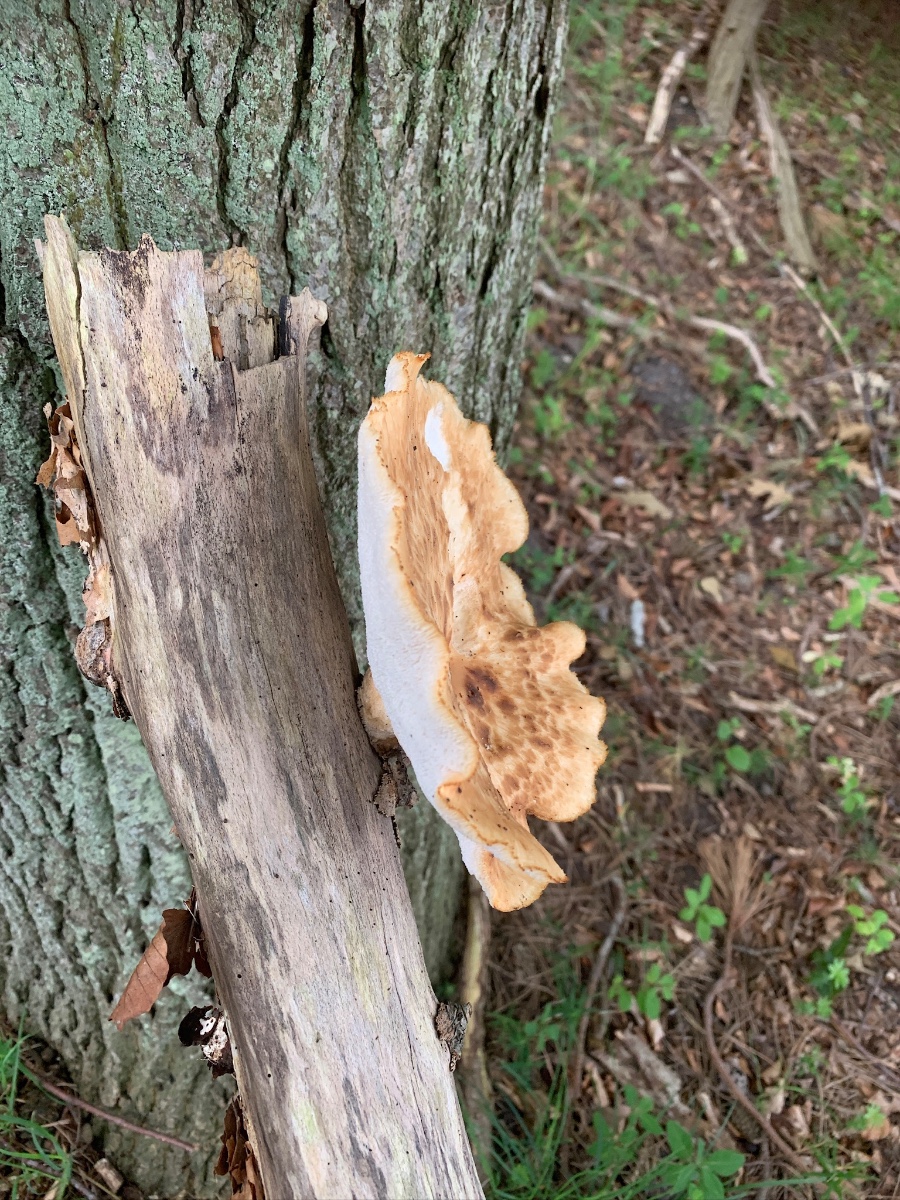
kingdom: Fungi
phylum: Basidiomycota
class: Agaricomycetes
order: Polyporales
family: Polyporaceae
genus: Polyporus
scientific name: Polyporus tuberaster
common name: knoldet stilkporesvamp
